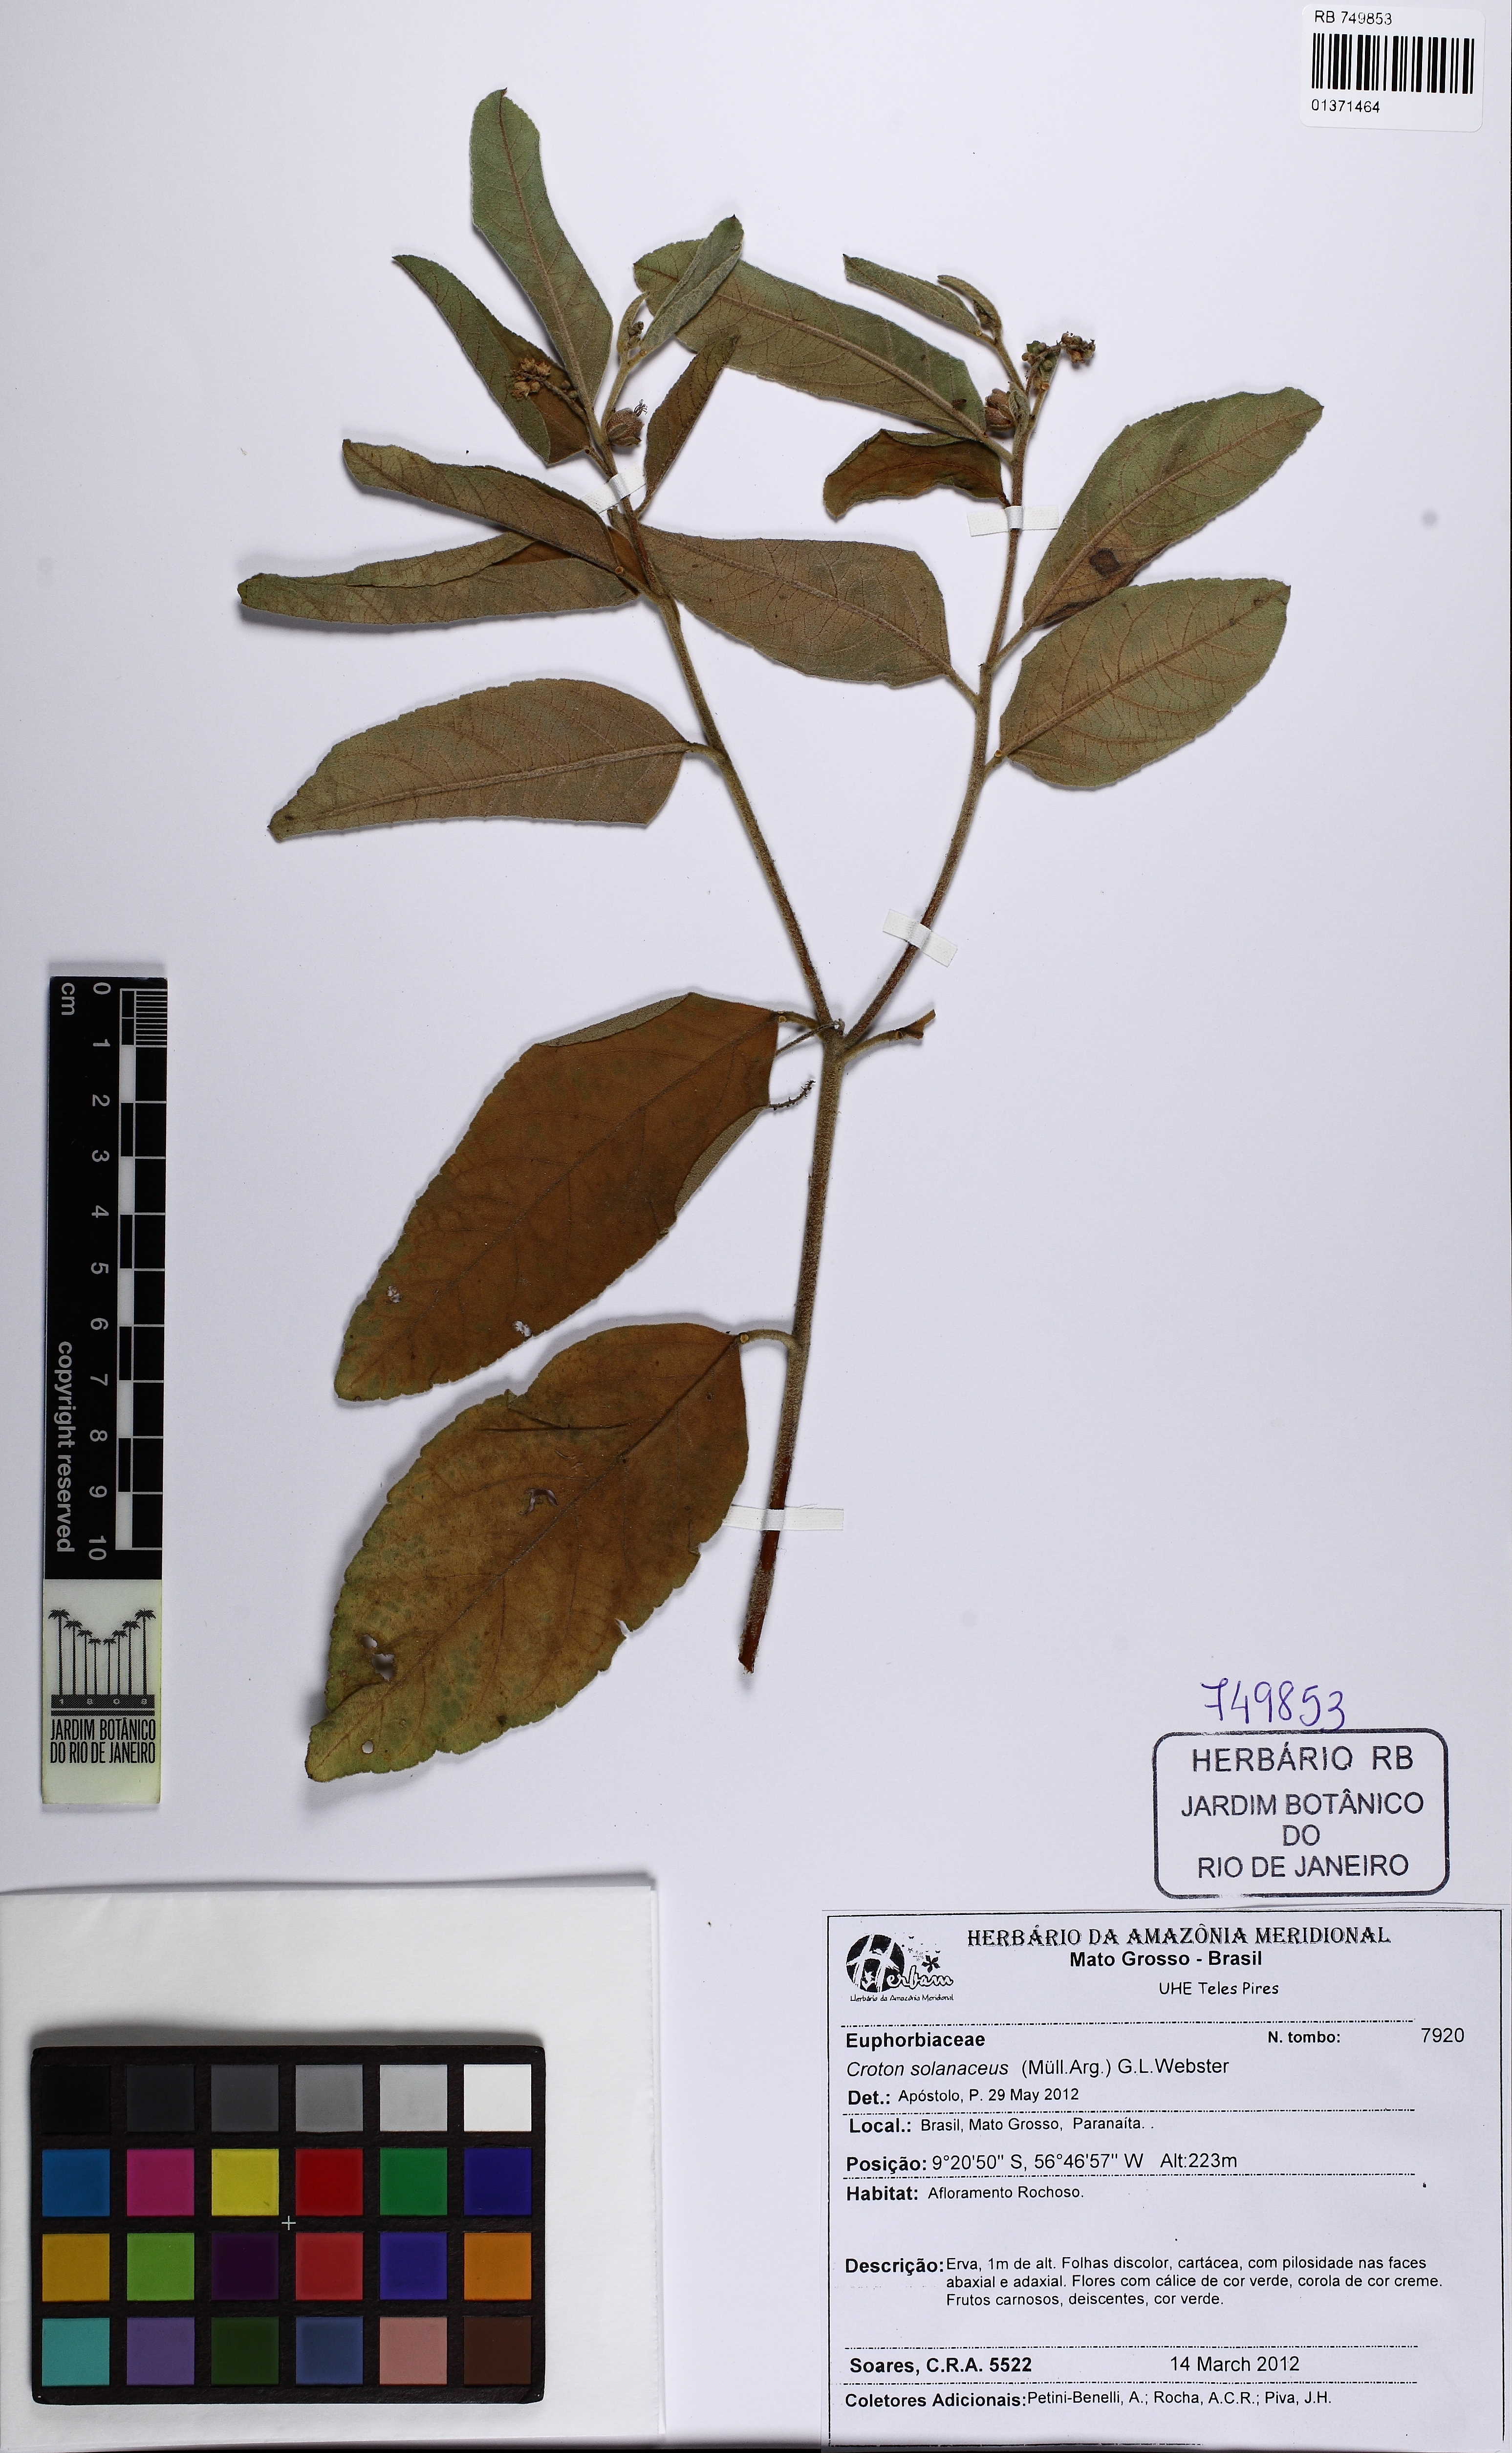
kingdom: Plantae
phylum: Tracheophyta
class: Magnoliopsida
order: Malpighiales
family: Euphorbiaceae
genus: Croton
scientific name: Croton solanaceus
